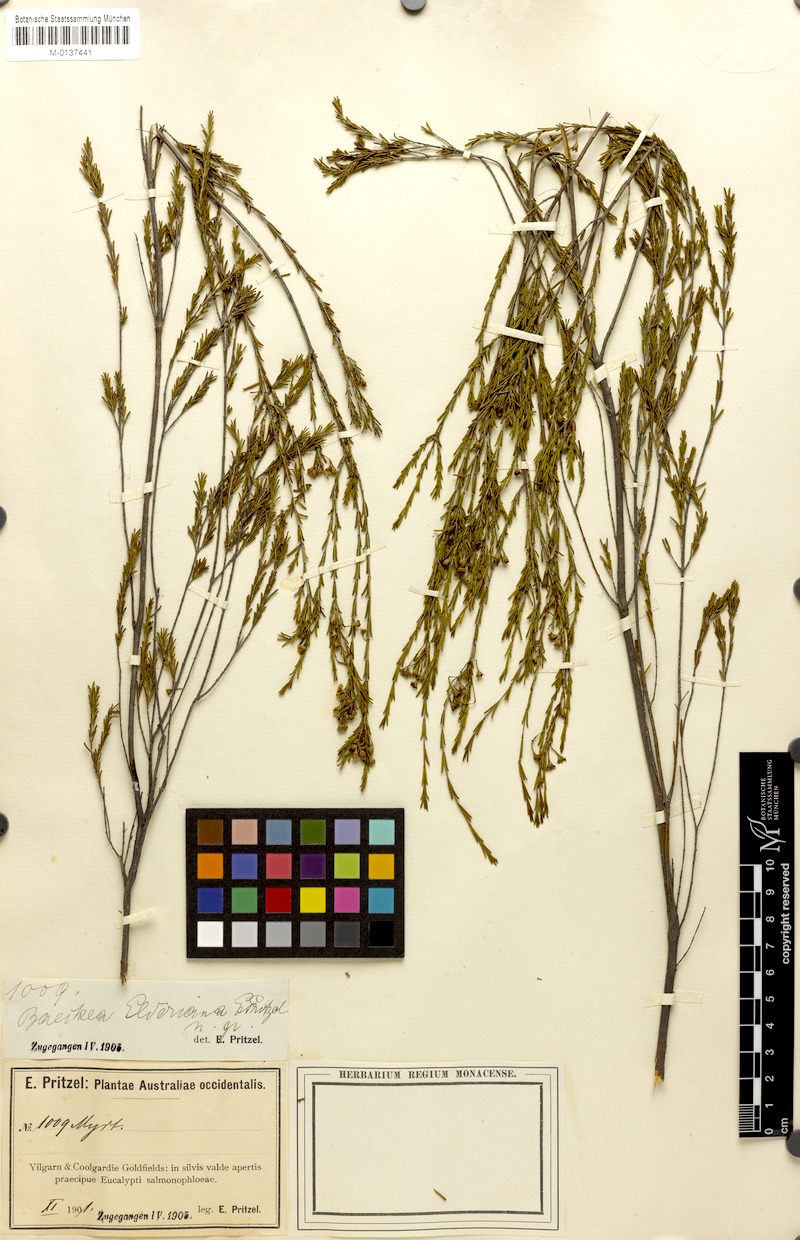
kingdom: Plantae
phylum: Tracheophyta
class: Magnoliopsida
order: Myrtales
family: Myrtaceae
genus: Baeckea
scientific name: Baeckea elderiana
